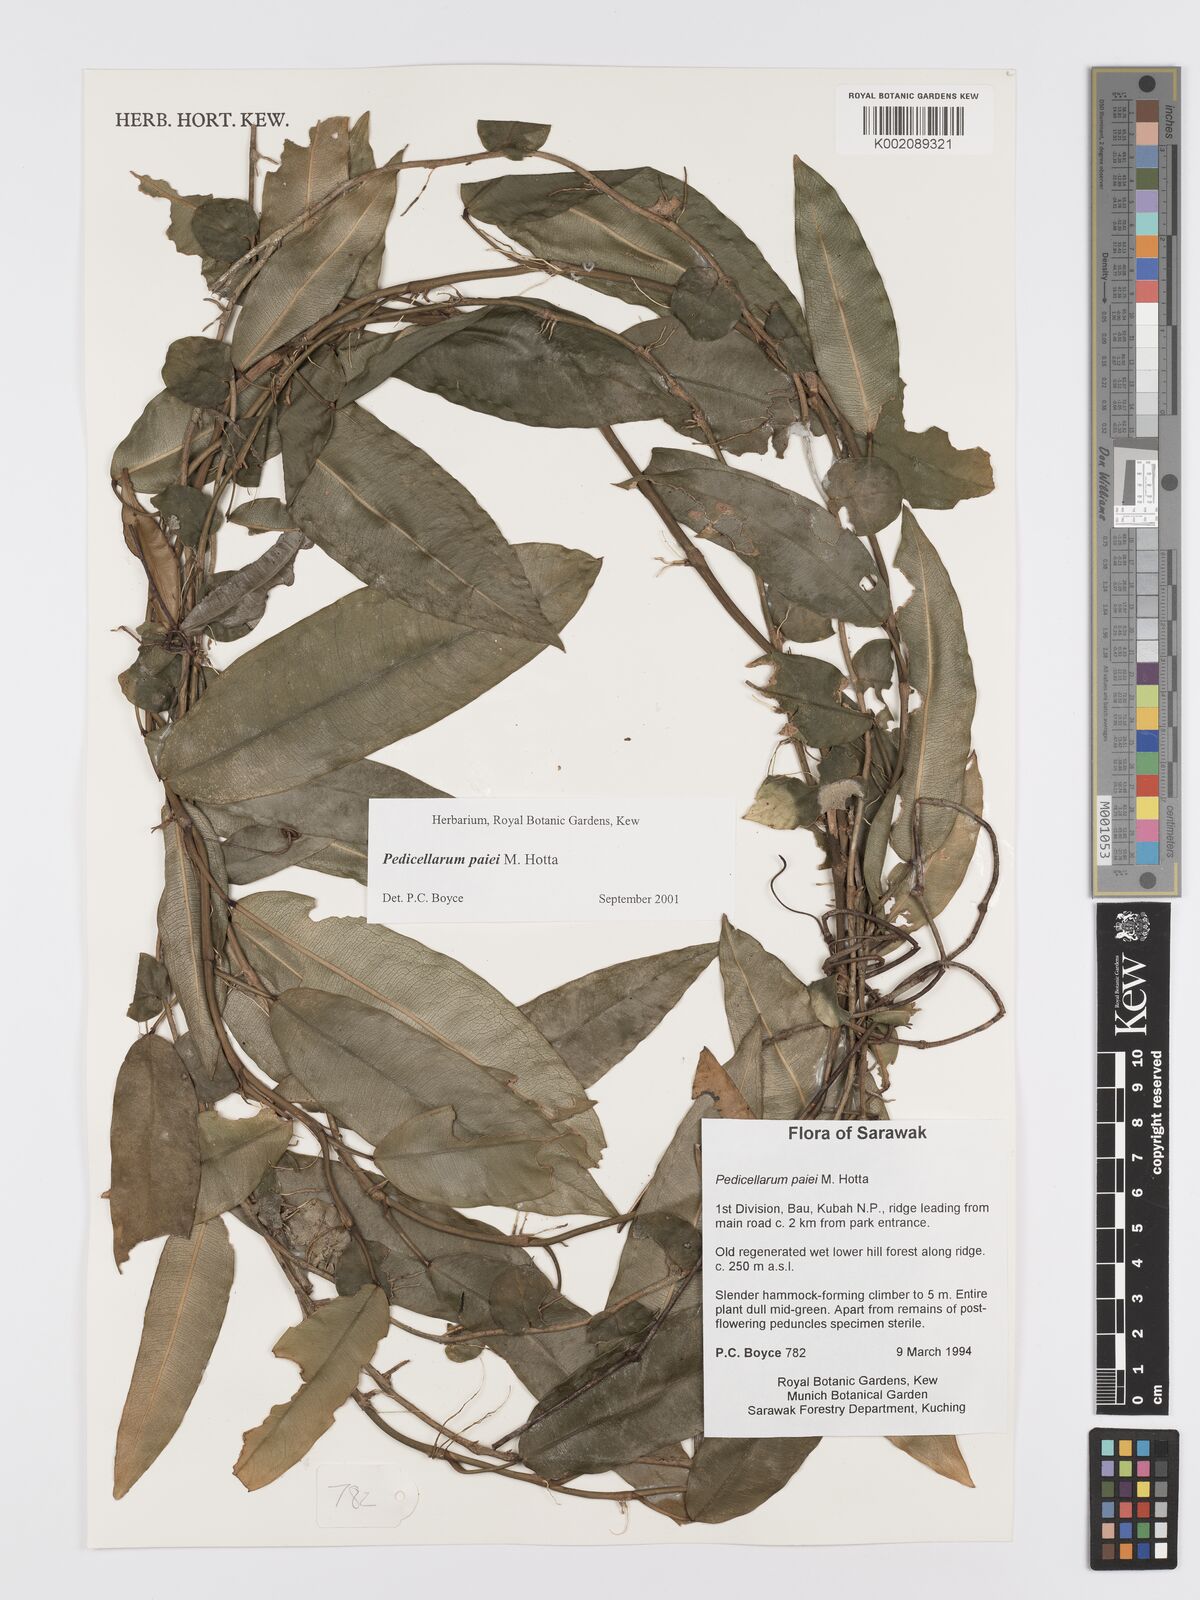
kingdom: Plantae
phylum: Tracheophyta
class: Liliopsida
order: Alismatales
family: Araceae
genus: Pothos
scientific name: Pothos paiei
